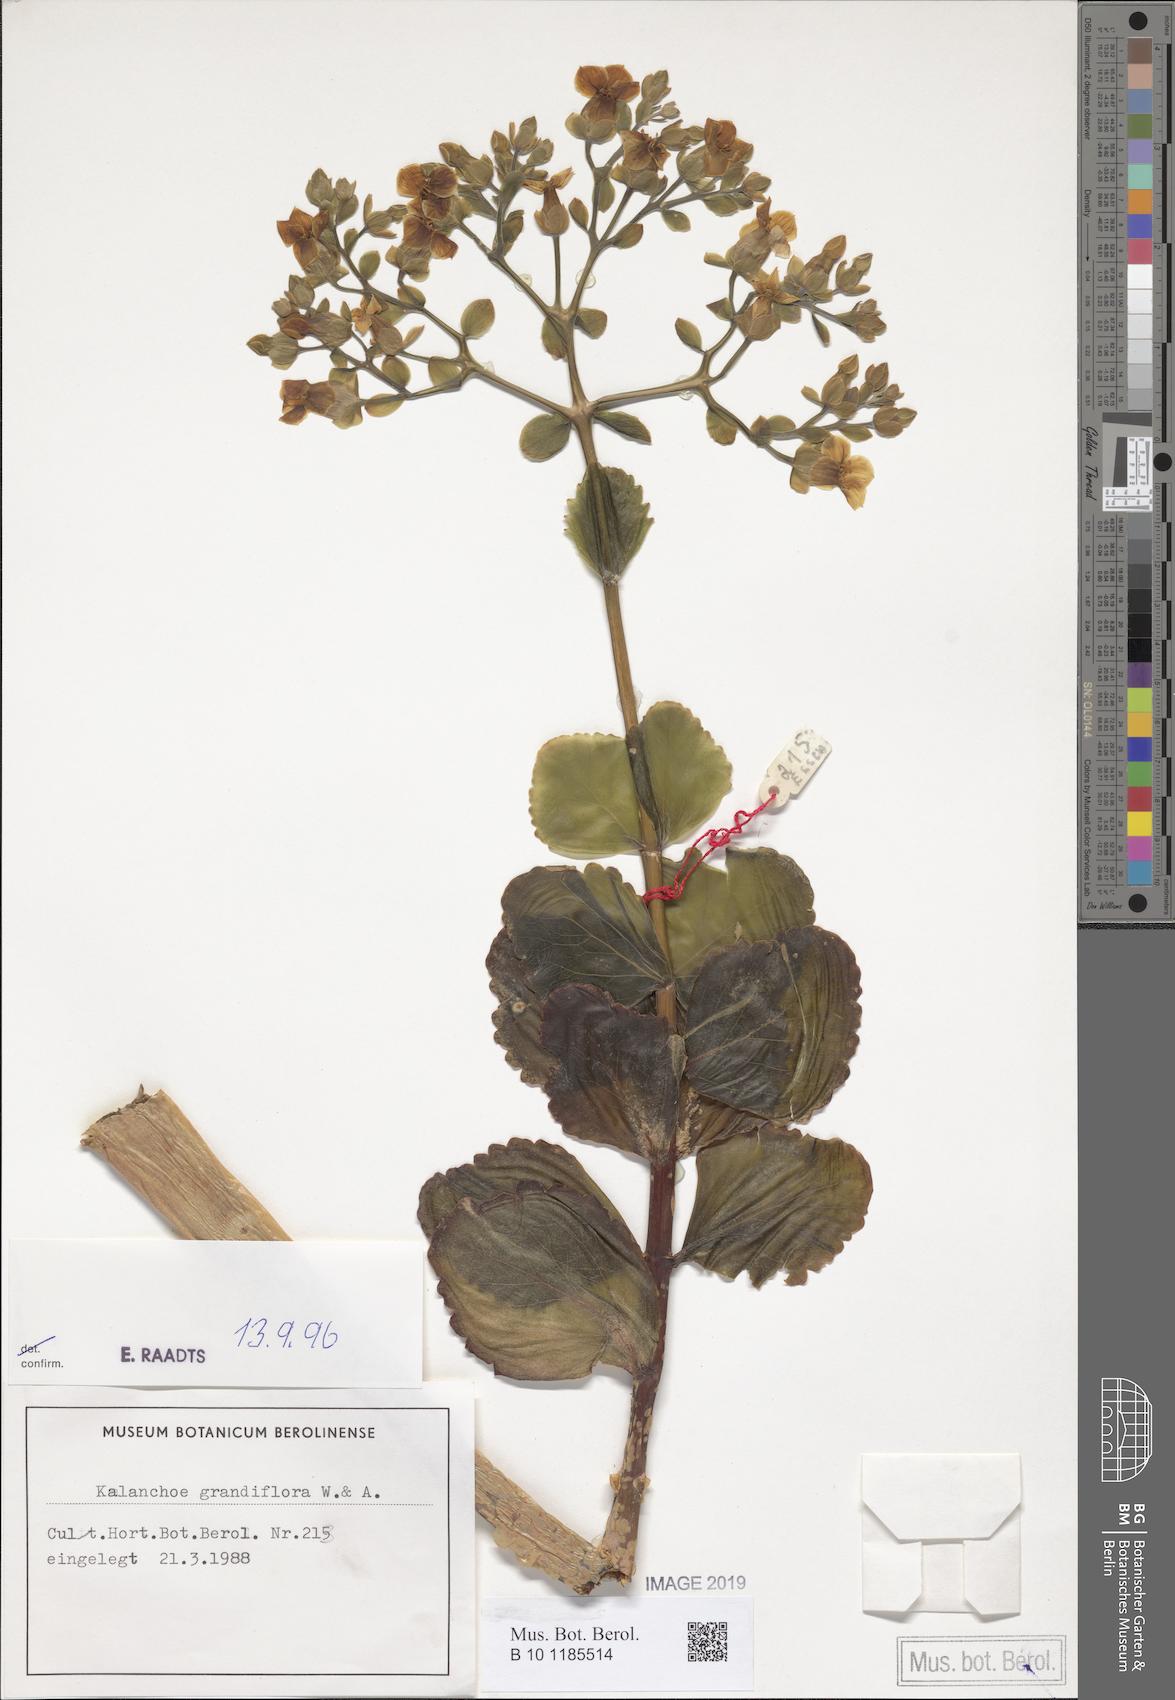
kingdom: Plantae
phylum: Tracheophyta
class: Magnoliopsida
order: Saxifragales
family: Crassulaceae
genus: Kalanchoe
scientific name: Kalanchoe grandiflora
